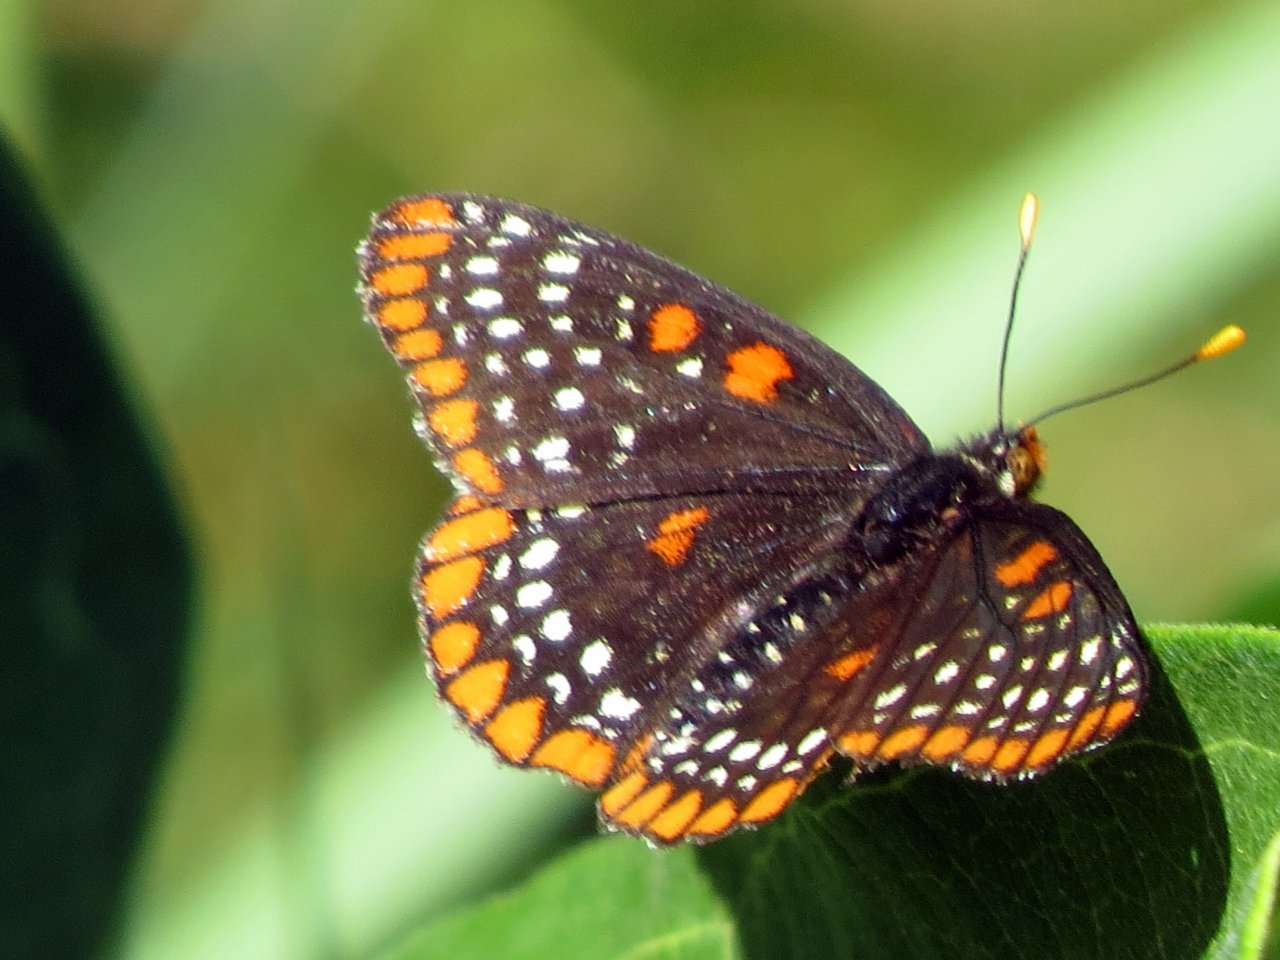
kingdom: Animalia
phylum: Arthropoda
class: Insecta
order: Lepidoptera
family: Nymphalidae
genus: Euphydryas
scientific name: Euphydryas phaeton
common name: Baltimore Checkerspot
